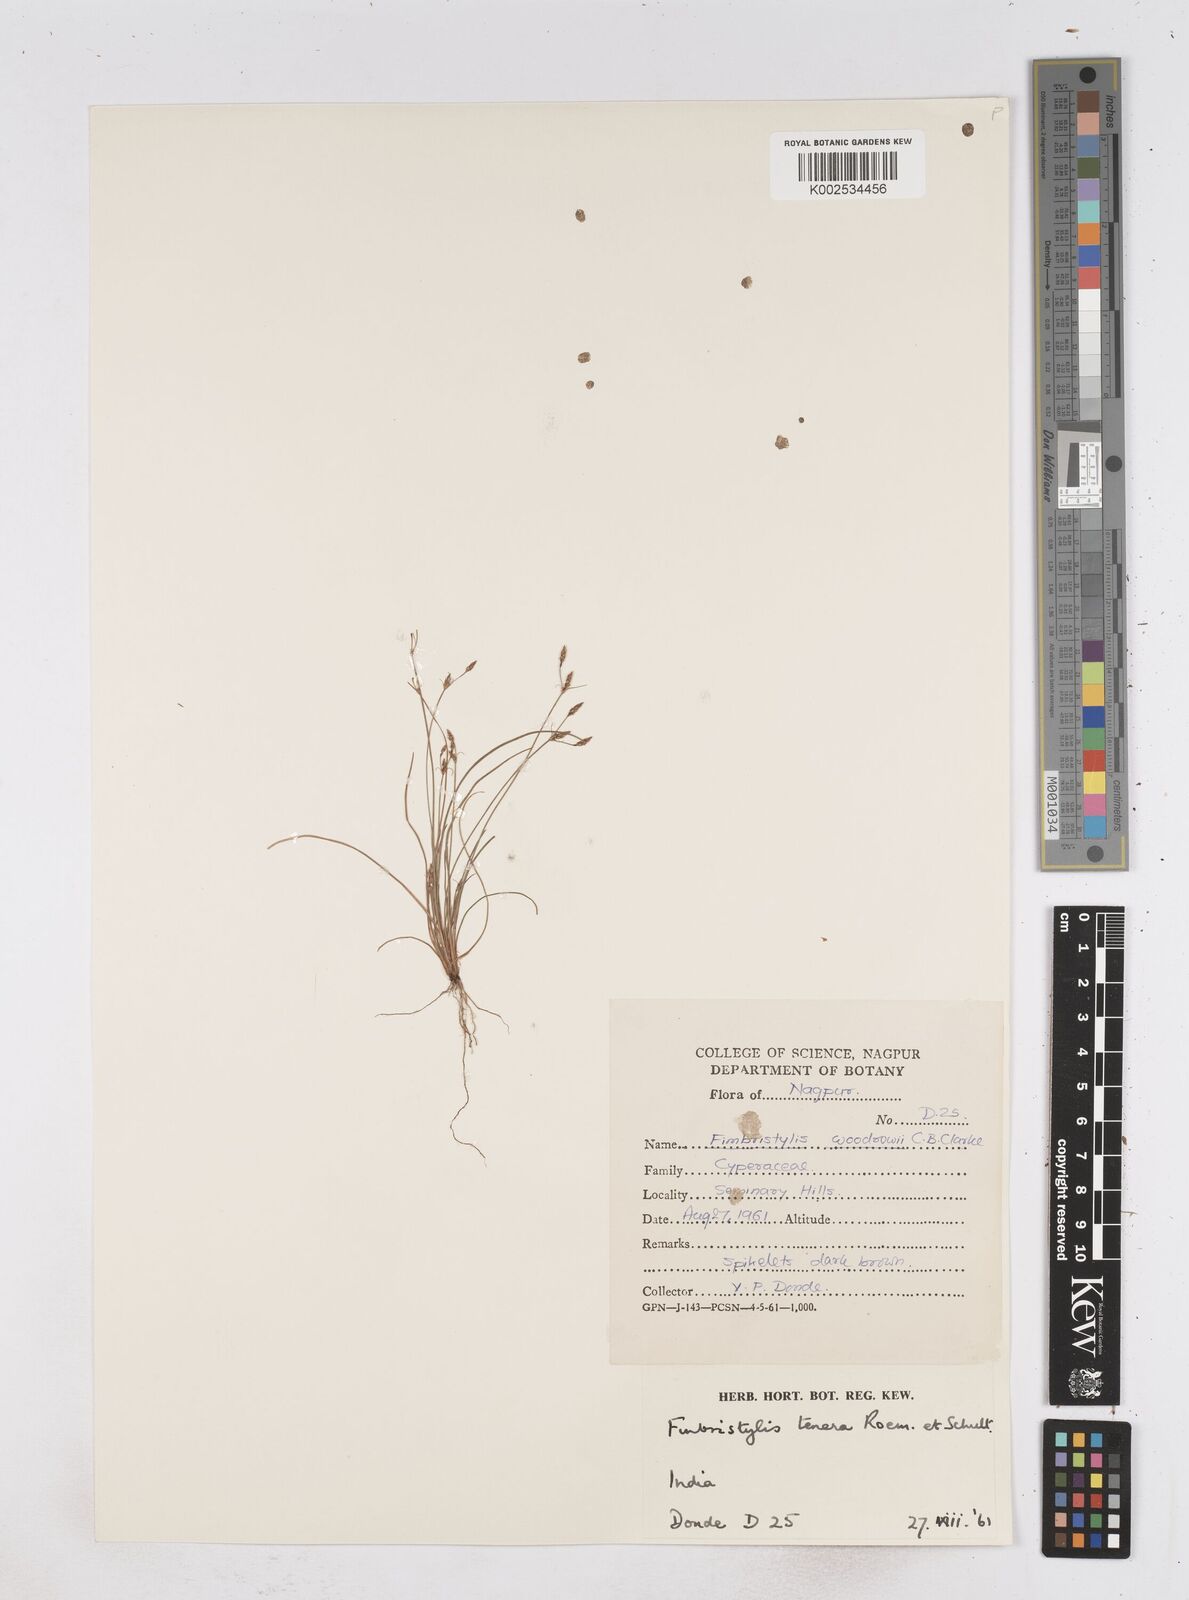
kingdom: Plantae
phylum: Tracheophyta
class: Liliopsida
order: Poales
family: Cyperaceae
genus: Fimbristylis
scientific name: Fimbristylis tenera
